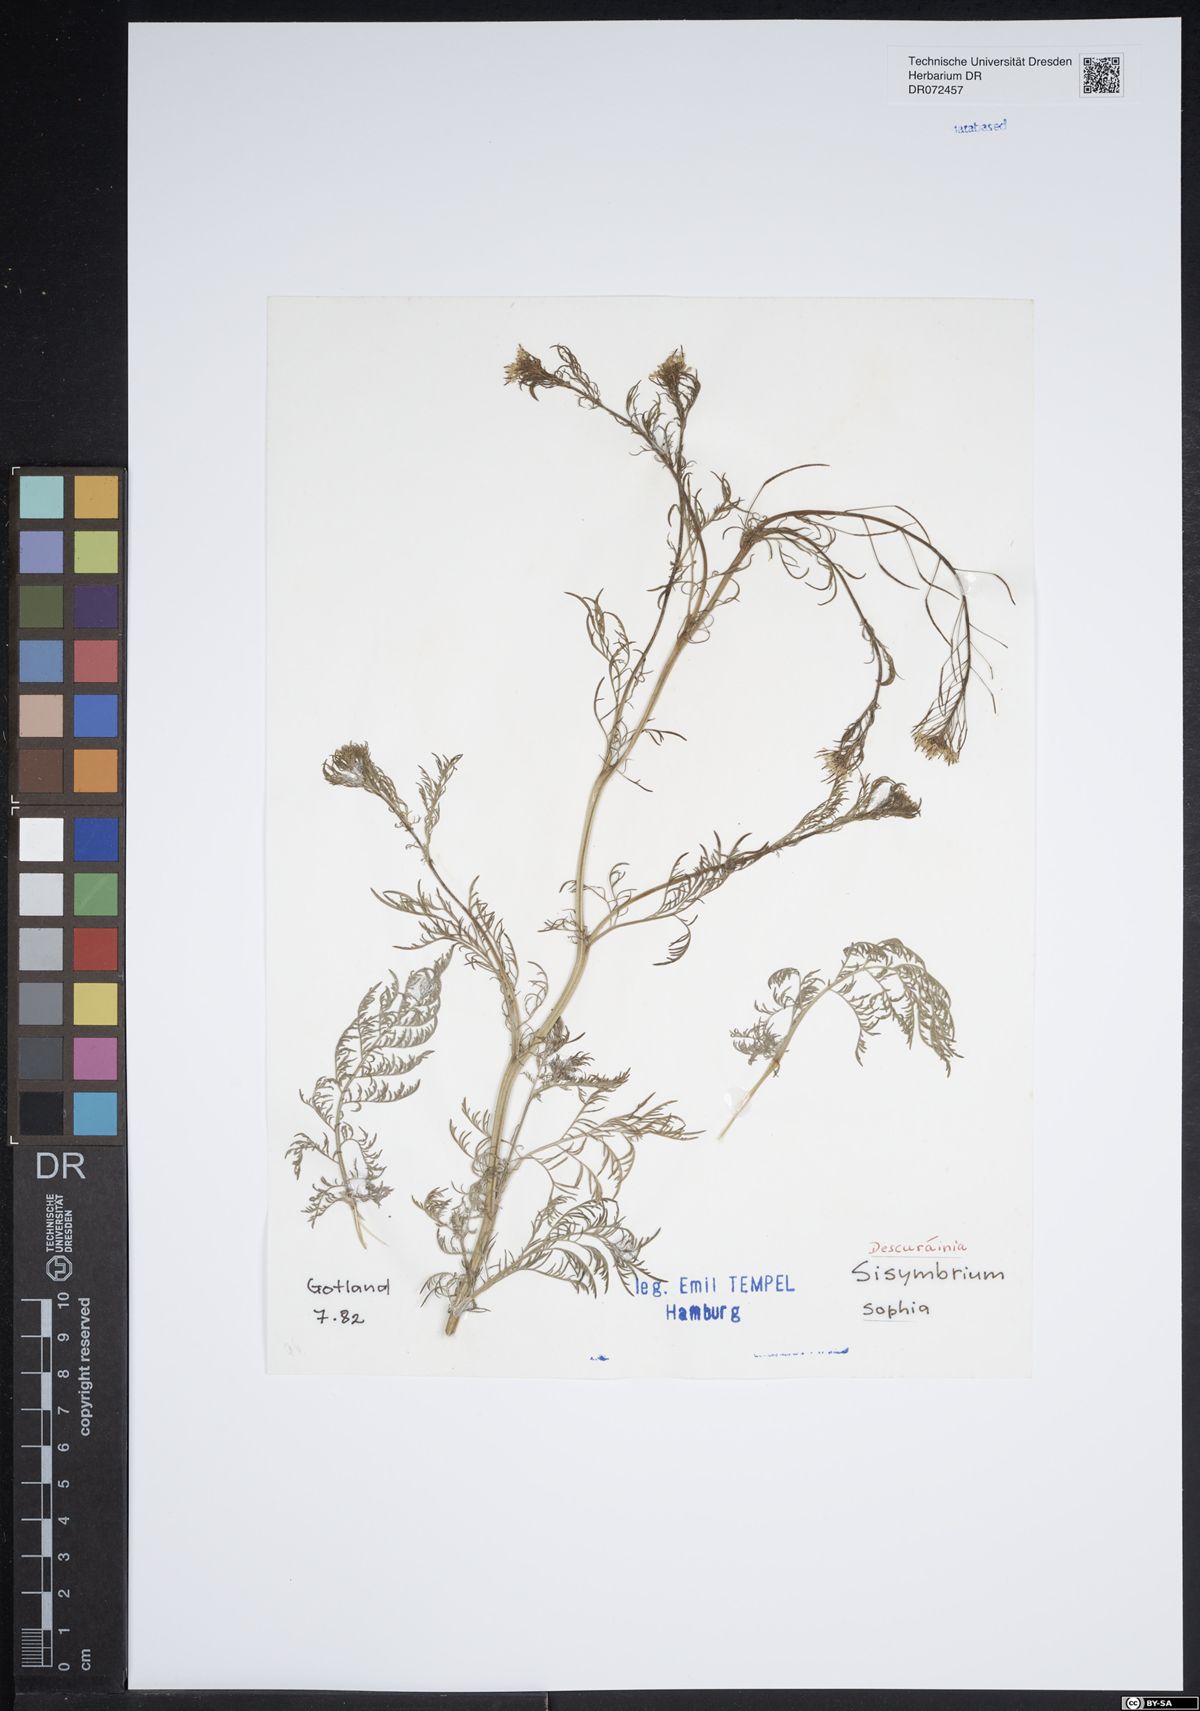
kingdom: Plantae
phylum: Tracheophyta
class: Magnoliopsida
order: Brassicales
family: Brassicaceae
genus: Descurainia
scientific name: Descurainia sophia
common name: Flixweed
